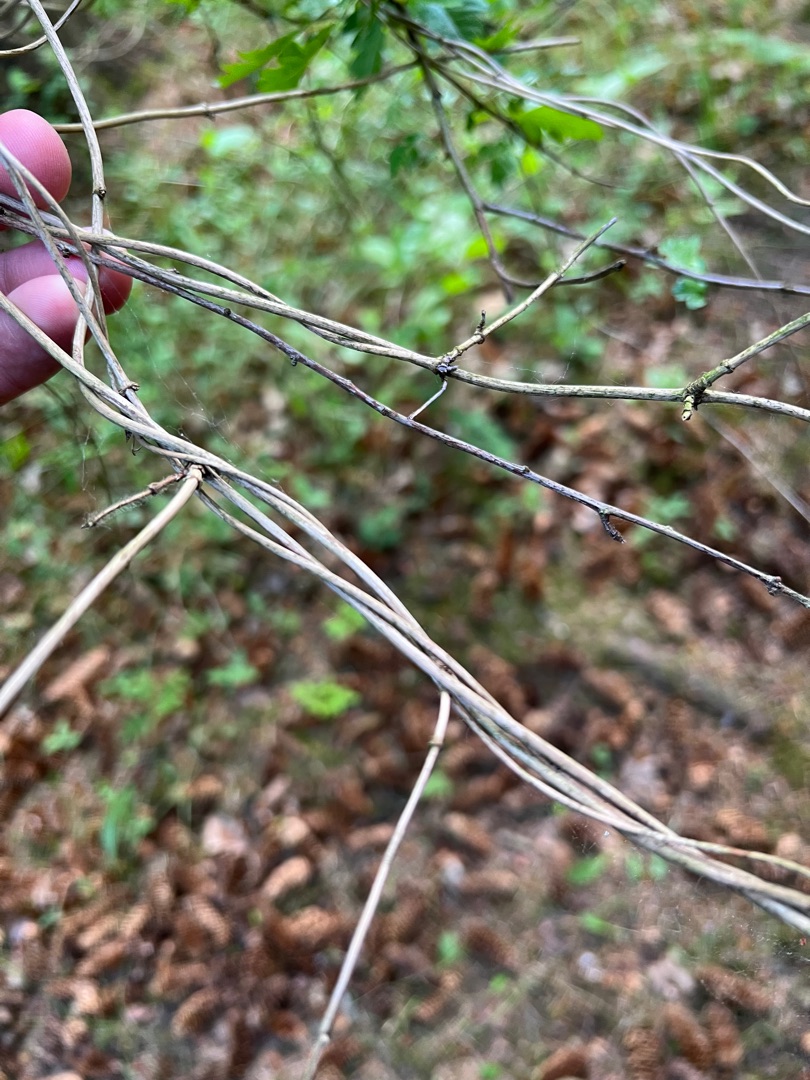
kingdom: Plantae
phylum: Tracheophyta
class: Magnoliopsida
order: Dipsacales
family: Caprifoliaceae
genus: Lonicera
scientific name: Lonicera periclymenum
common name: Almindelig gedeblad
